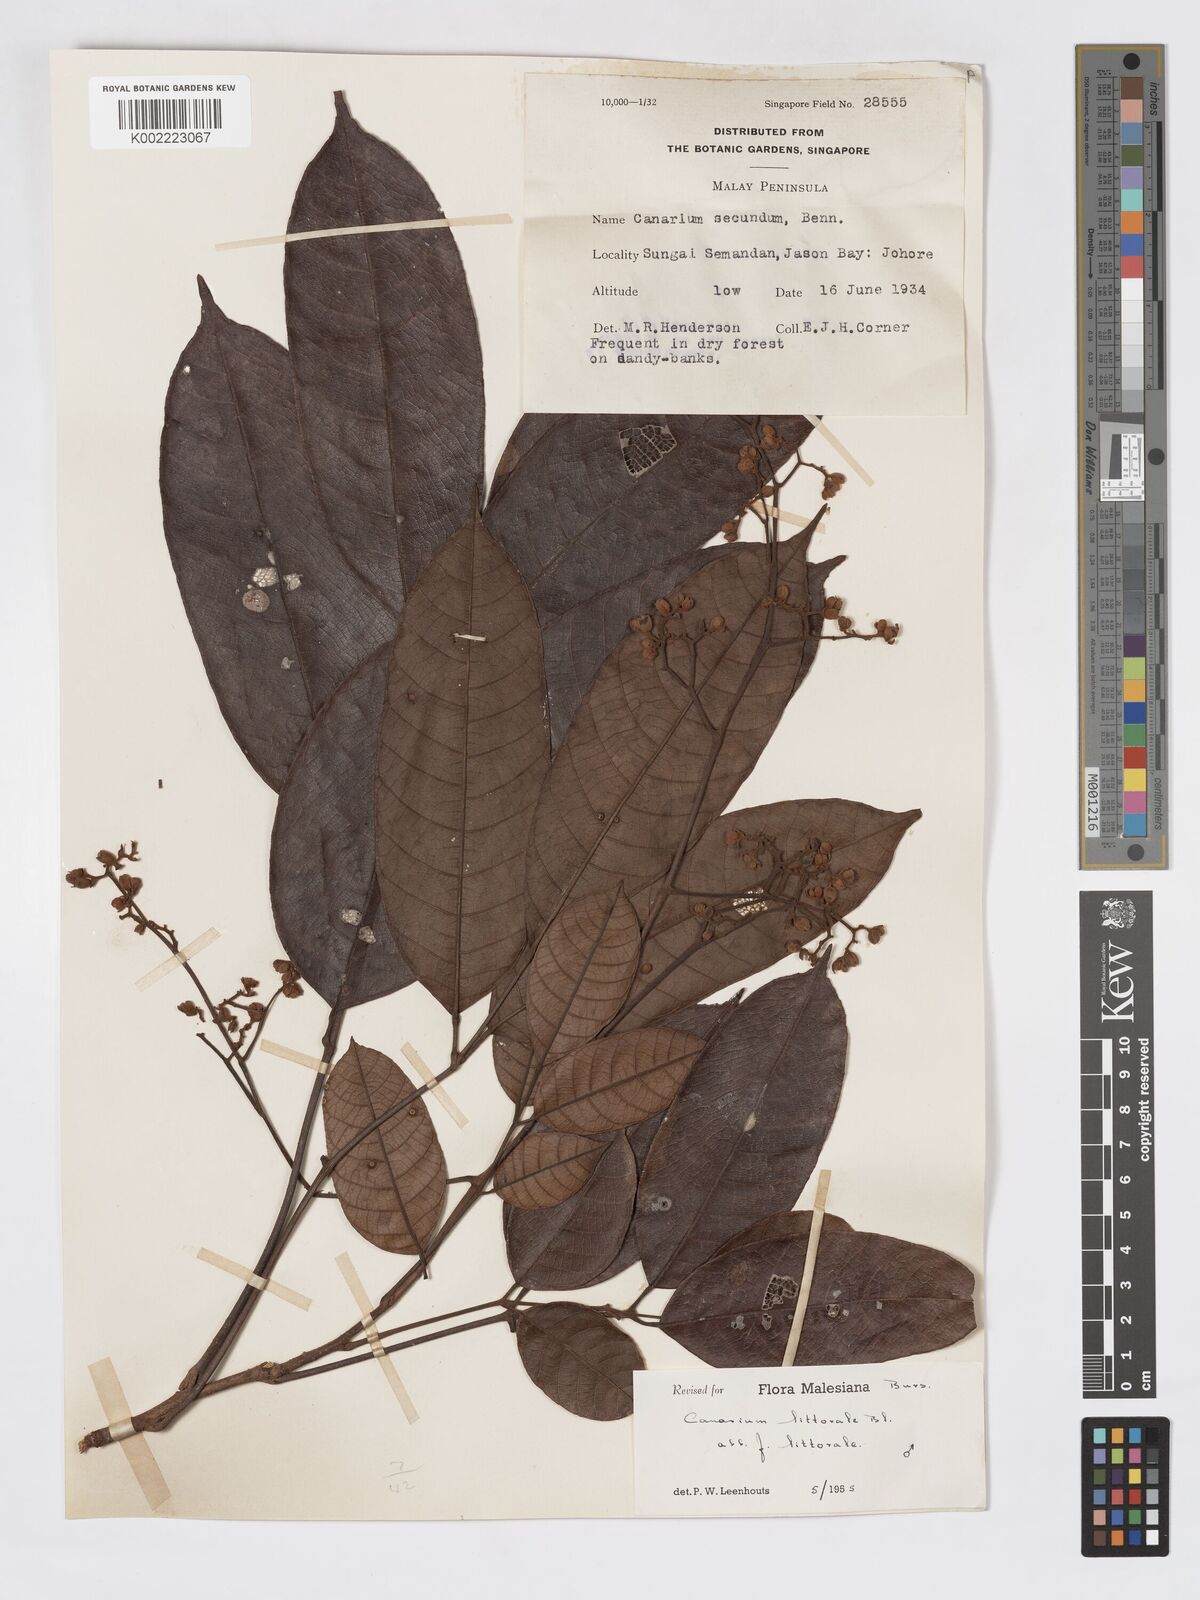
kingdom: Plantae
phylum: Tracheophyta
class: Magnoliopsida
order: Sapindales
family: Burseraceae
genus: Canarium
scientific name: Canarium littorale
